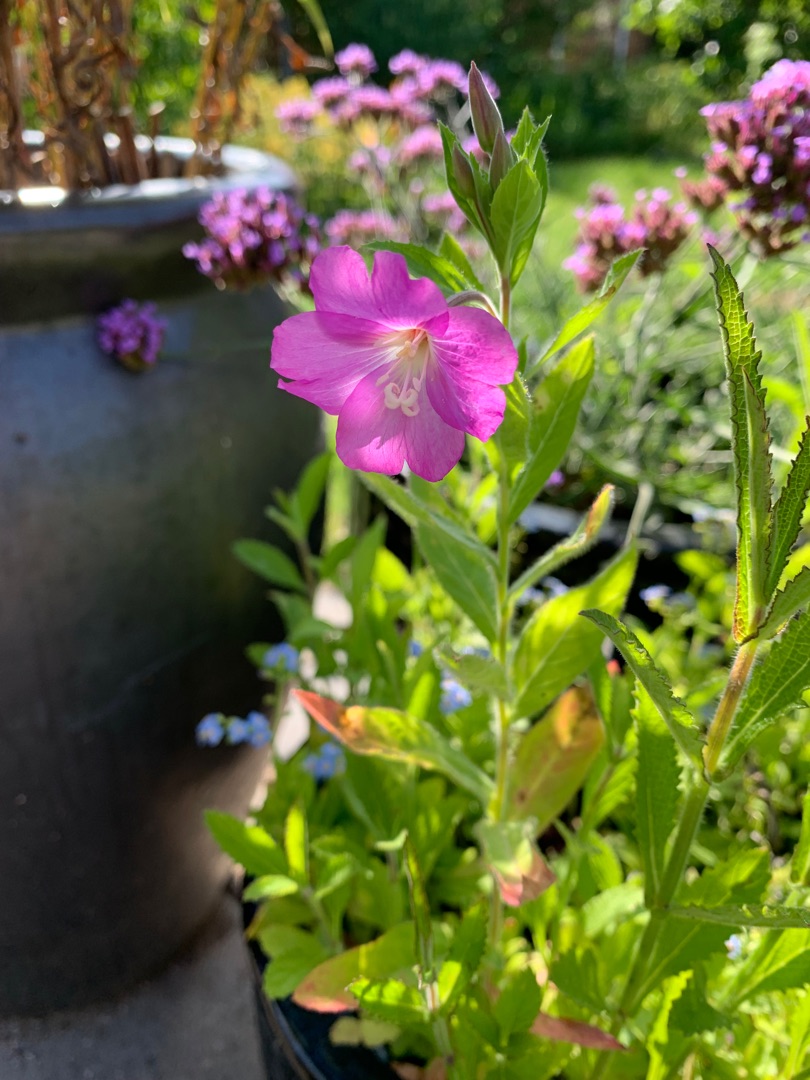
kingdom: Plantae
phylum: Tracheophyta
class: Magnoliopsida
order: Myrtales
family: Onagraceae
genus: Epilobium
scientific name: Epilobium hirsutum
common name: Lådden dueurt
